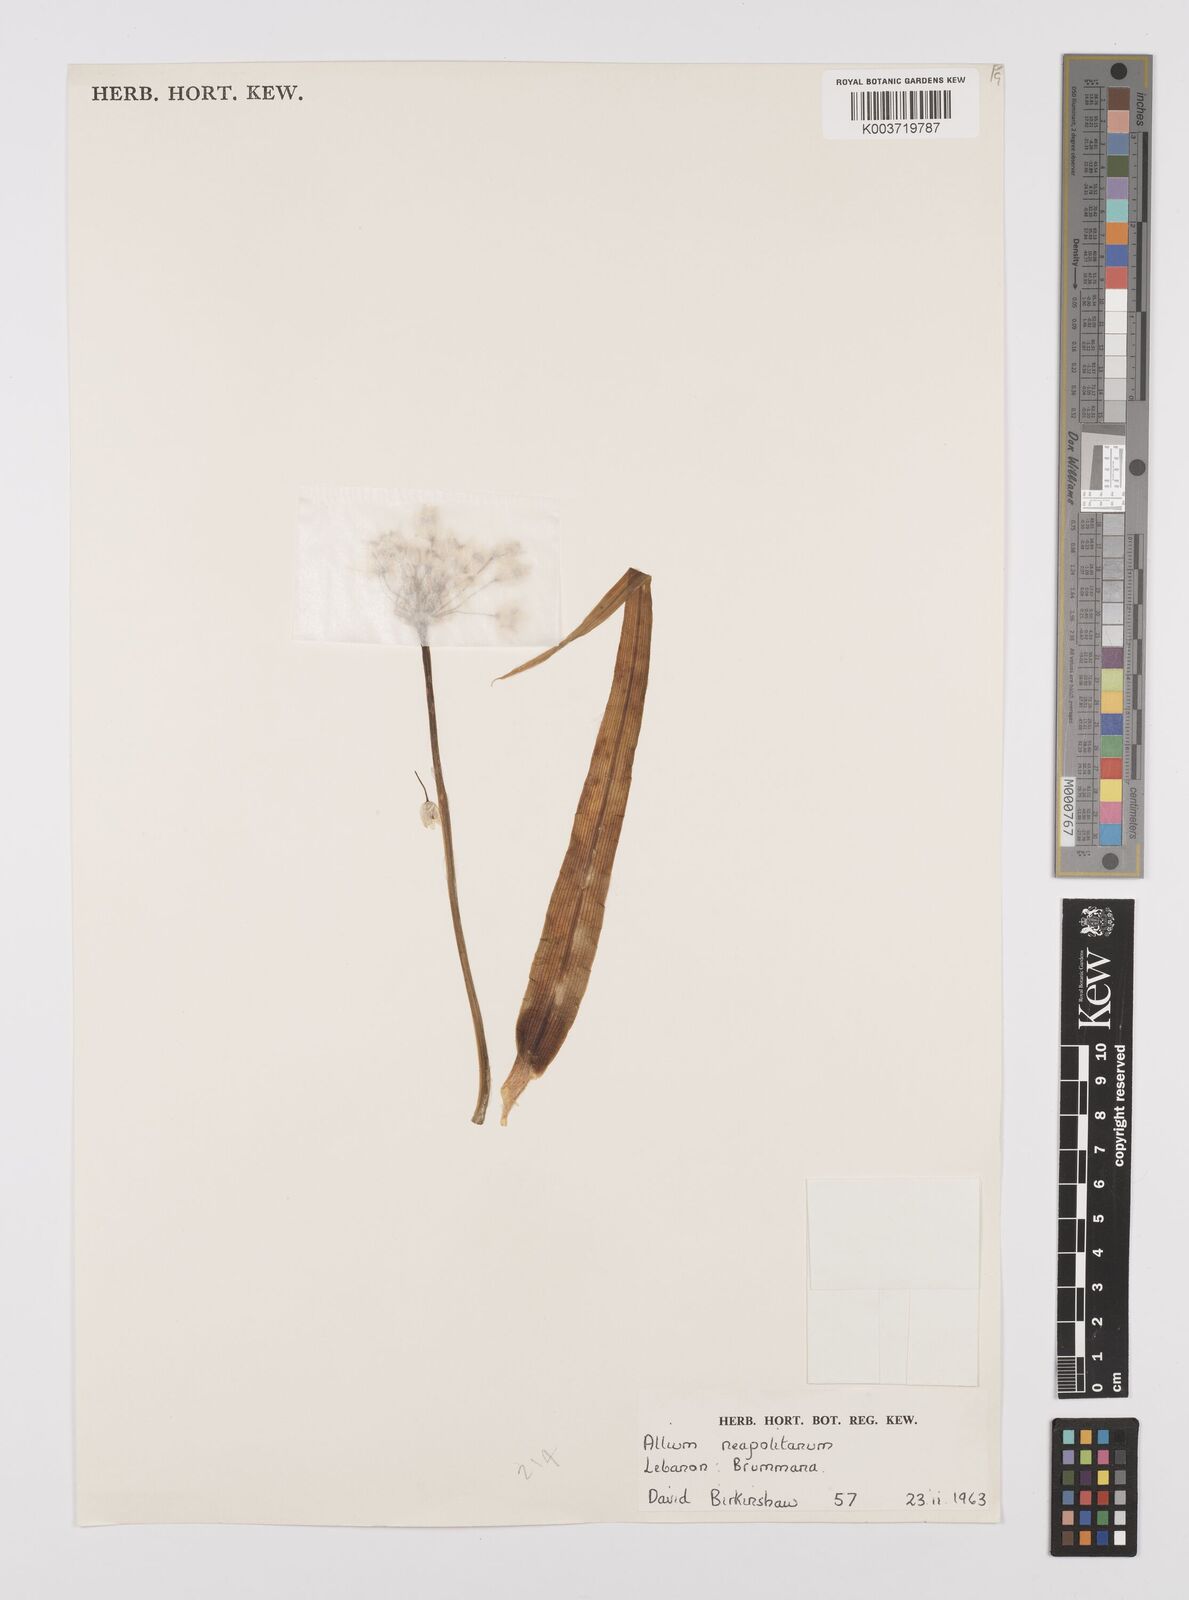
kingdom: Plantae
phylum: Tracheophyta
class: Liliopsida
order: Asparagales
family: Amaryllidaceae
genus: Allium
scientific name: Allium neapolitanum
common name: Neapolitan garlic
